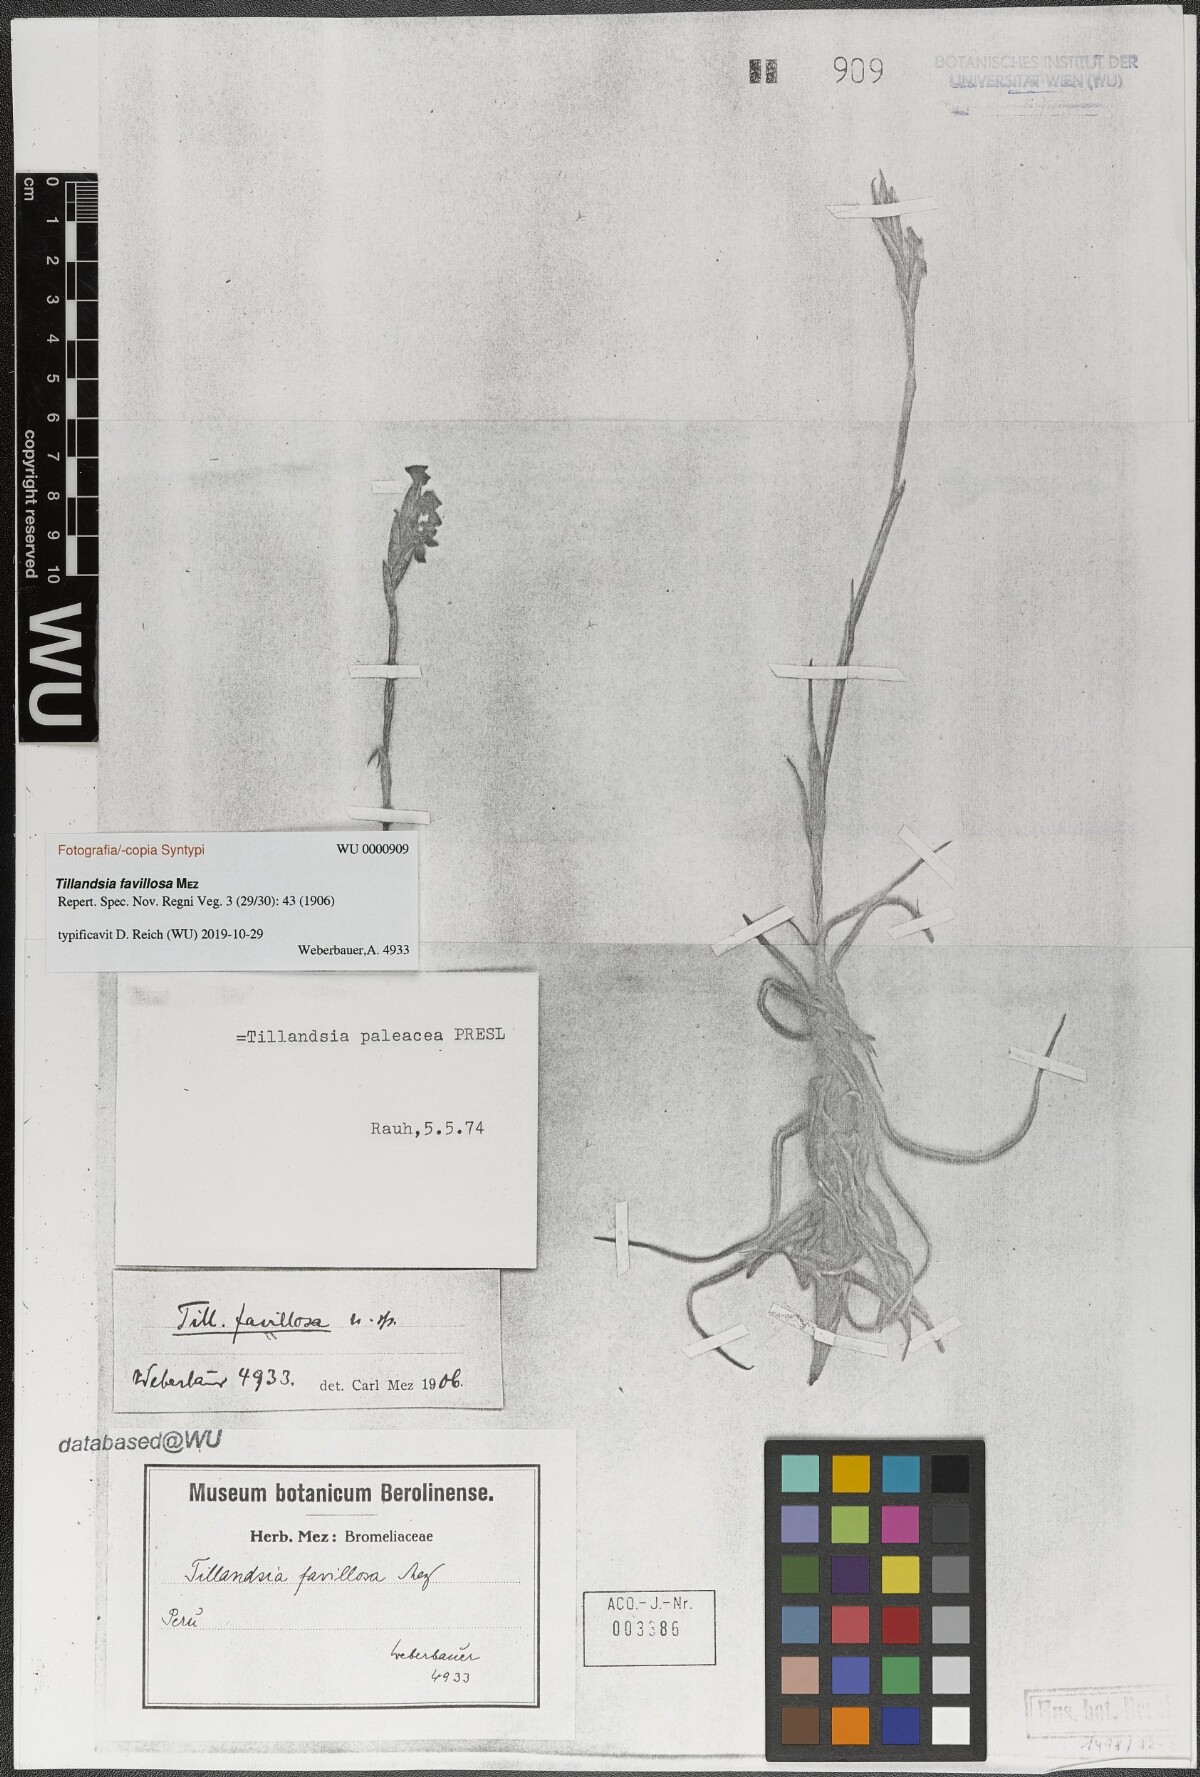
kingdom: Plantae
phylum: Tracheophyta
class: Liliopsida
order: Poales
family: Bromeliaceae
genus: Tillandsia
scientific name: Tillandsia paleacea
